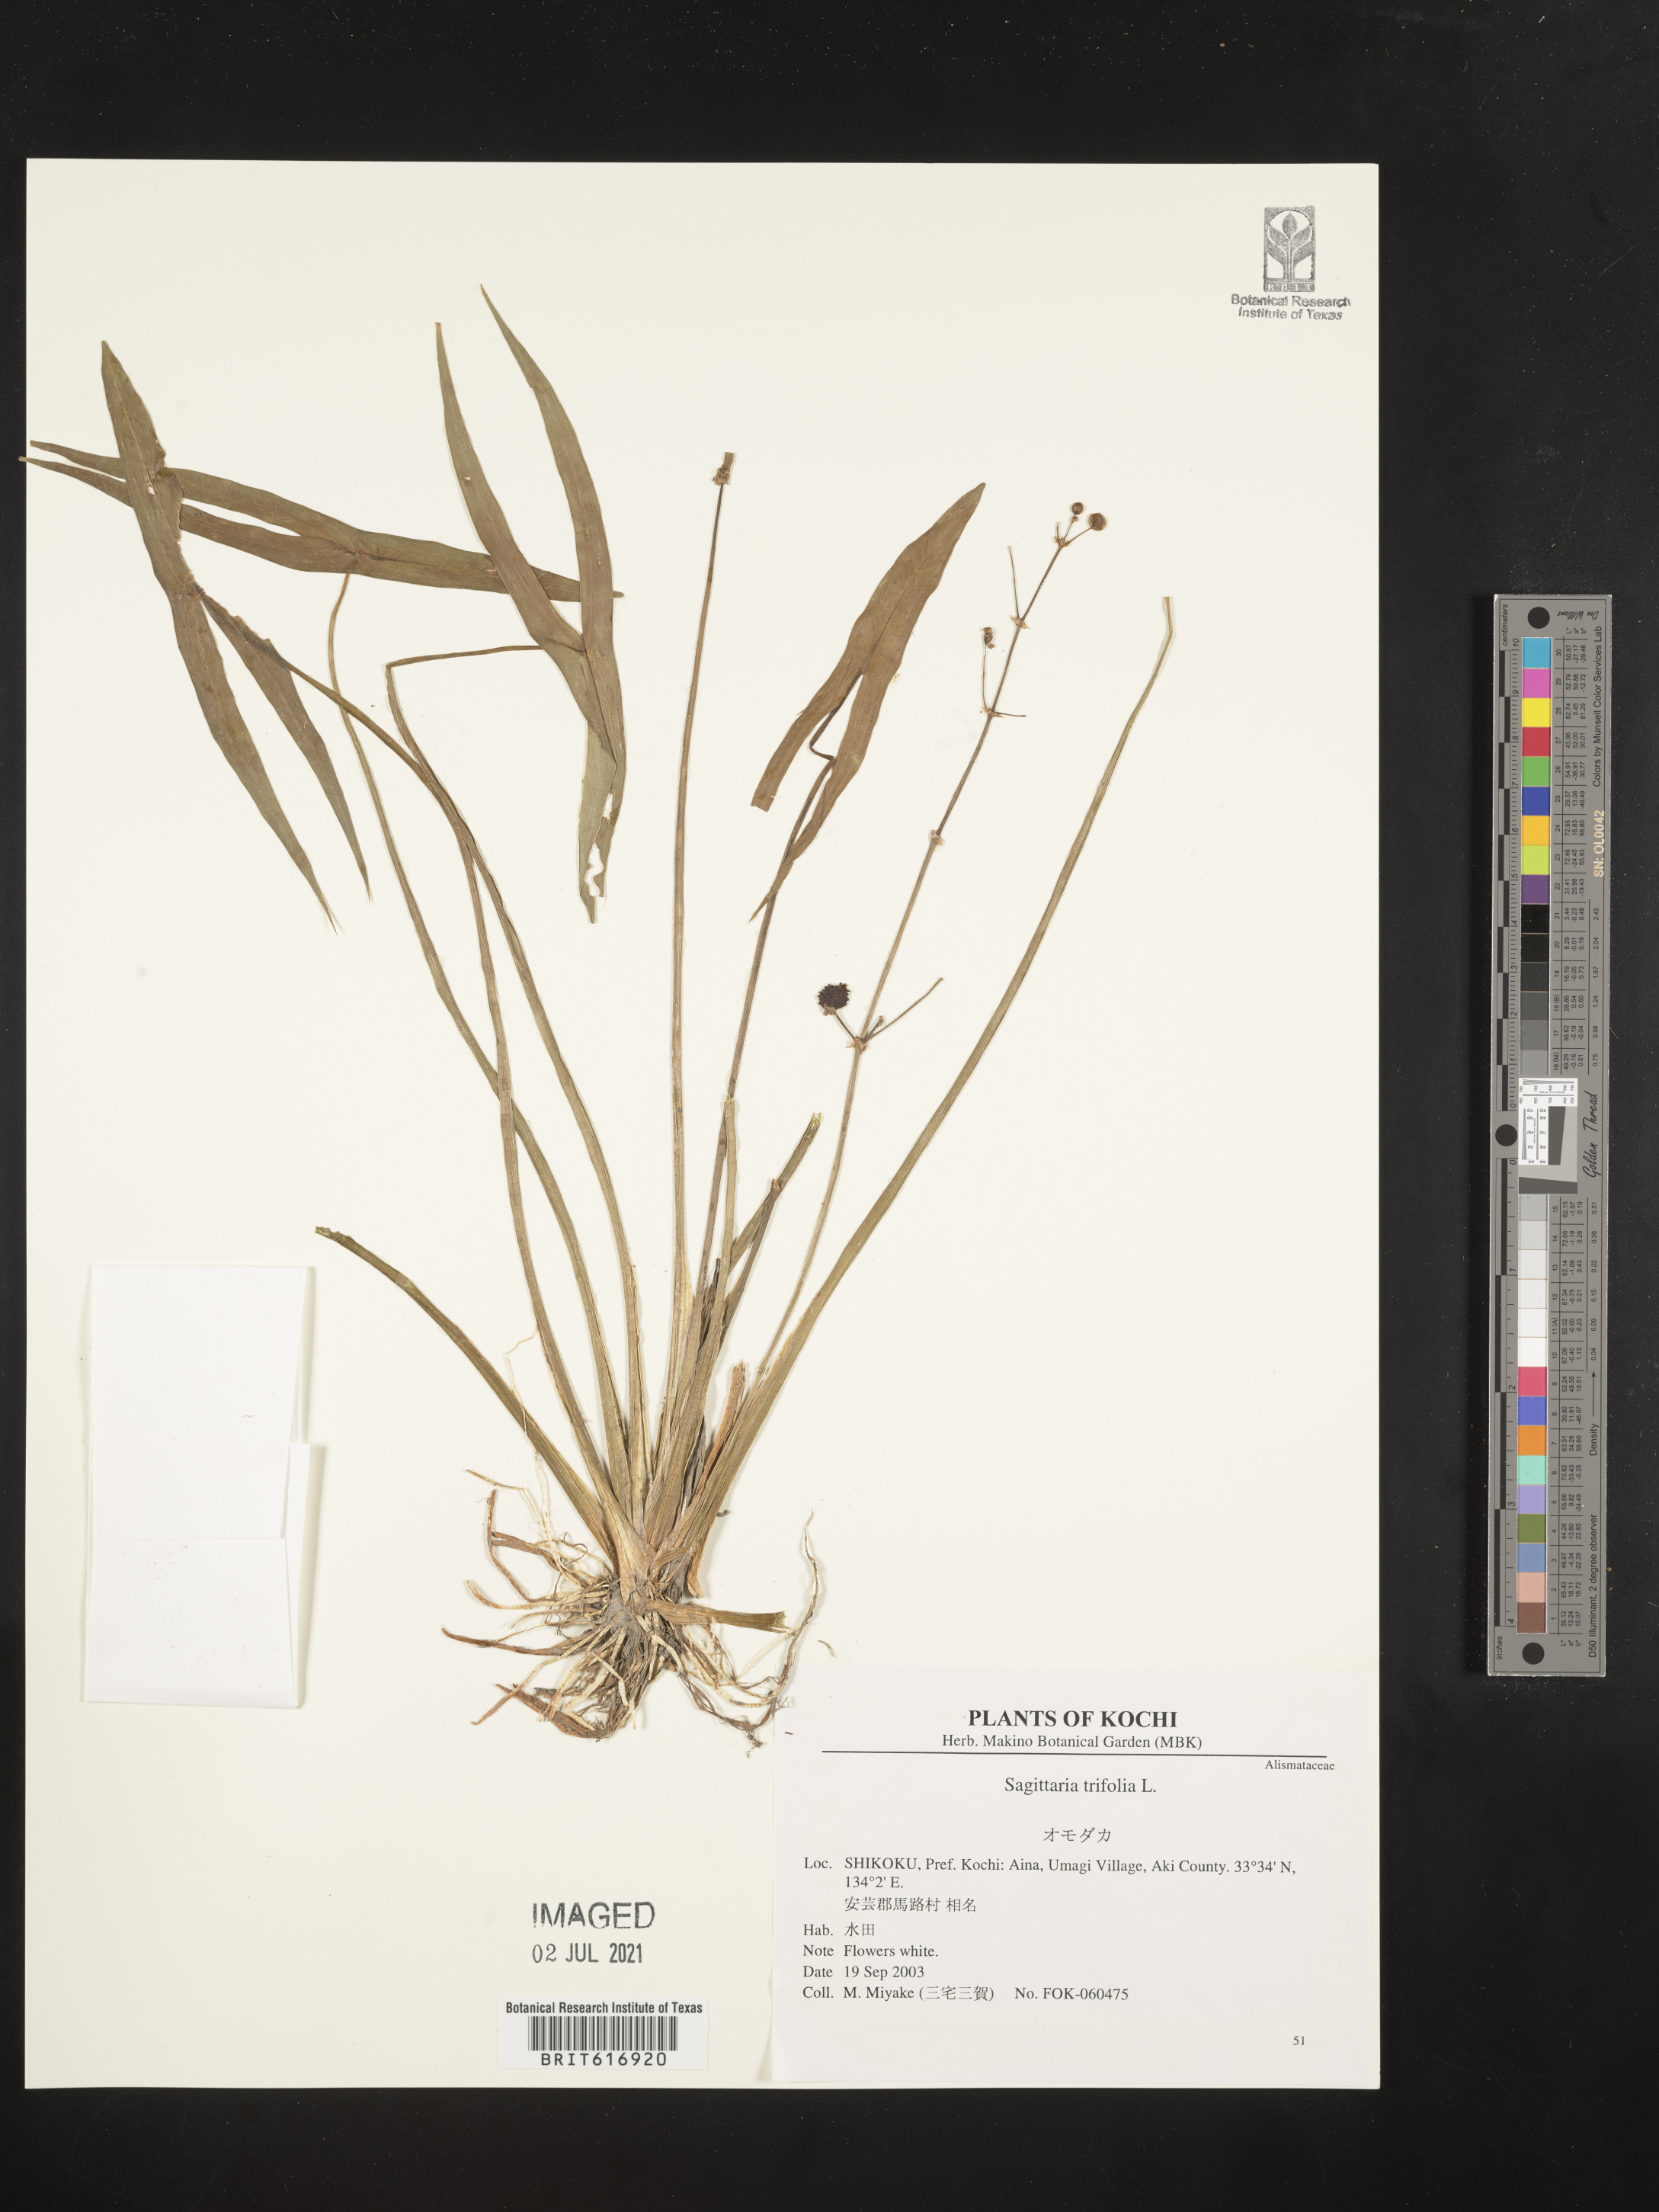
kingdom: Plantae
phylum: Tracheophyta
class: Liliopsida
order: Alismatales
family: Alismataceae
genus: Sagittaria
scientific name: Sagittaria trifolia
